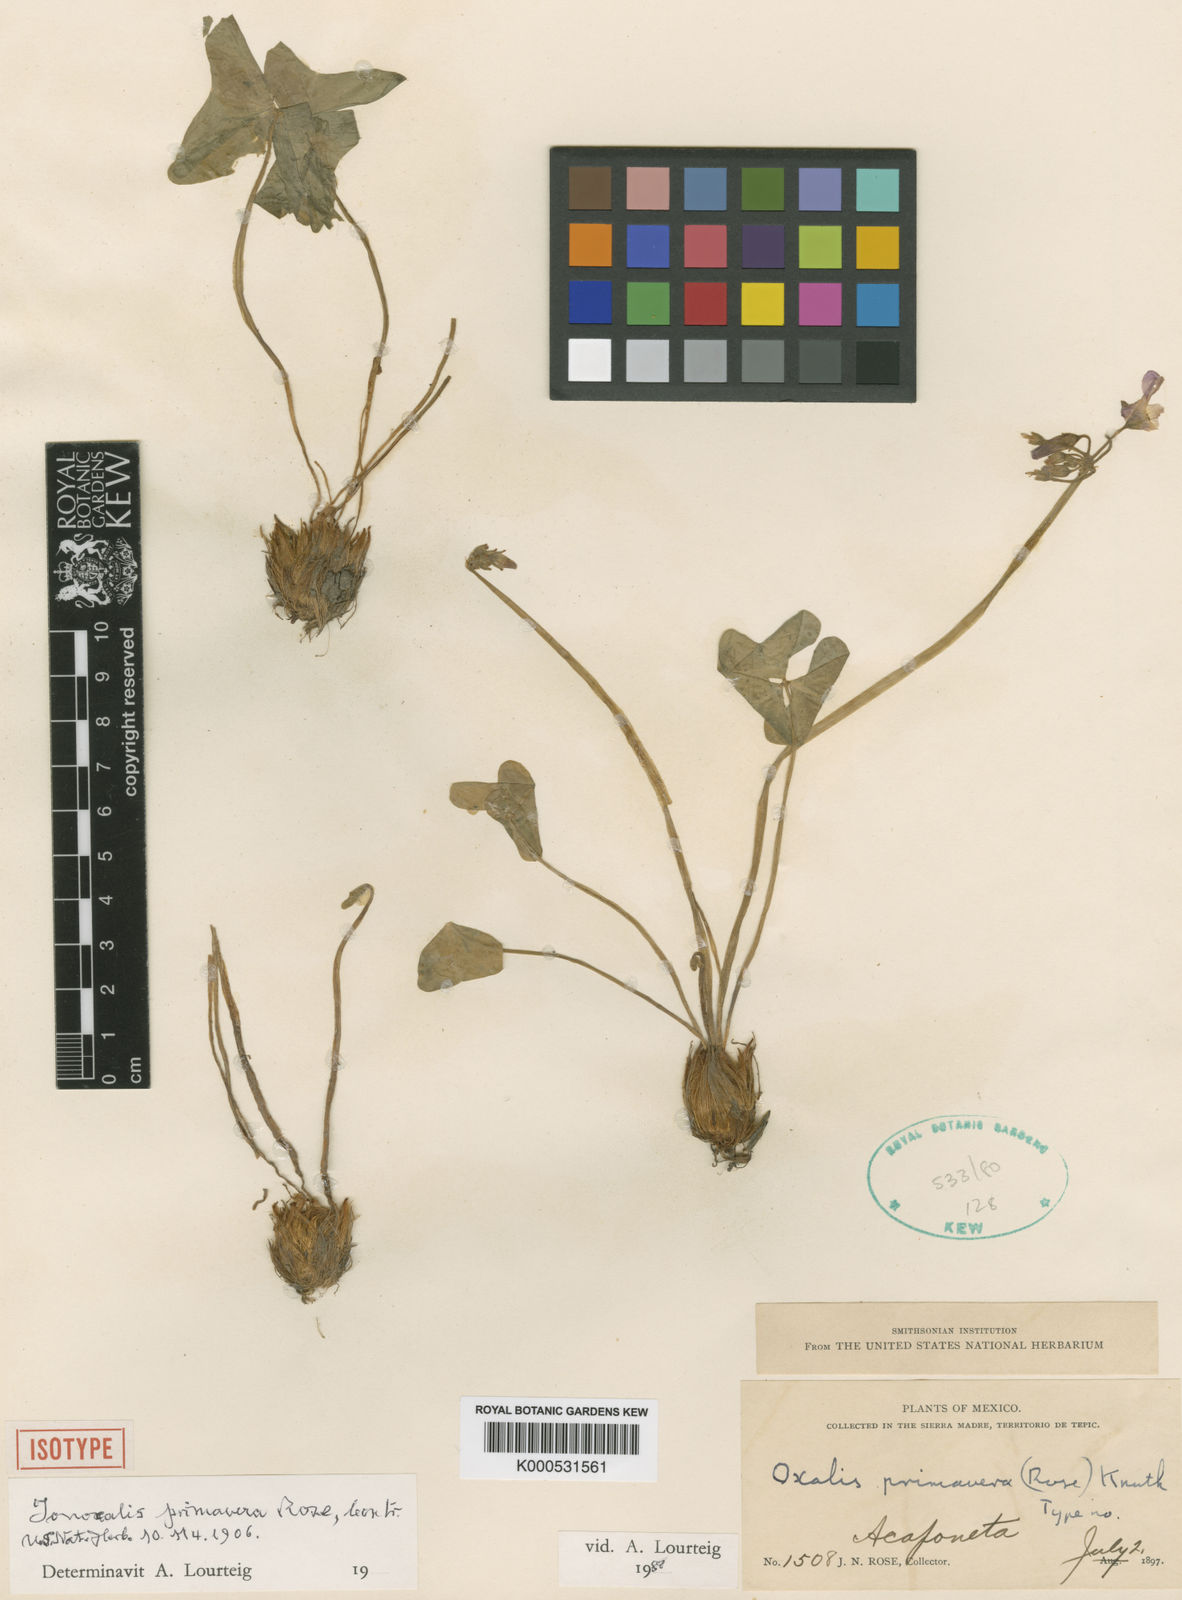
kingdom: Plantae
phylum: Tracheophyta
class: Magnoliopsida
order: Oxalidales
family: Oxalidaceae
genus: Oxalis
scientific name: Oxalis primavera
